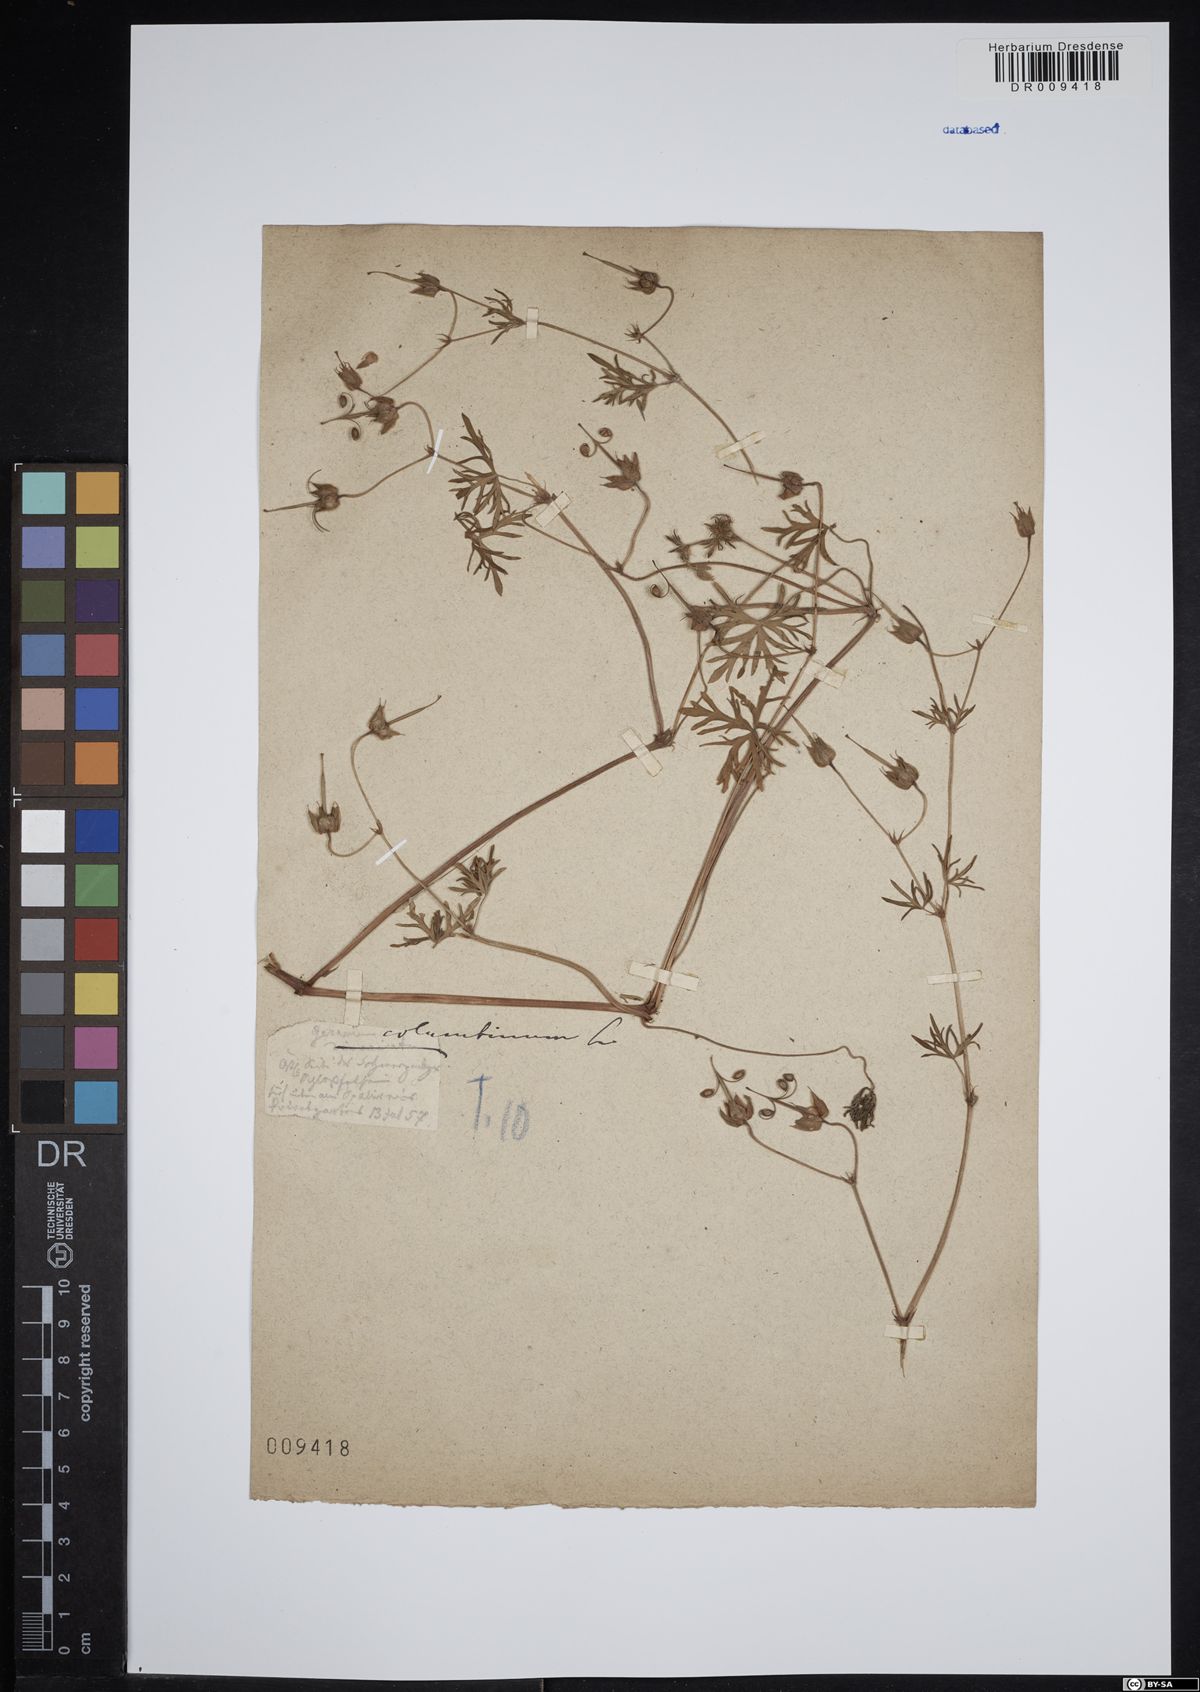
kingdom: Plantae
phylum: Tracheophyta
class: Magnoliopsida
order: Geraniales
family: Geraniaceae
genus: Geranium
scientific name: Geranium columbinum
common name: Long-stalked crane's-bill
